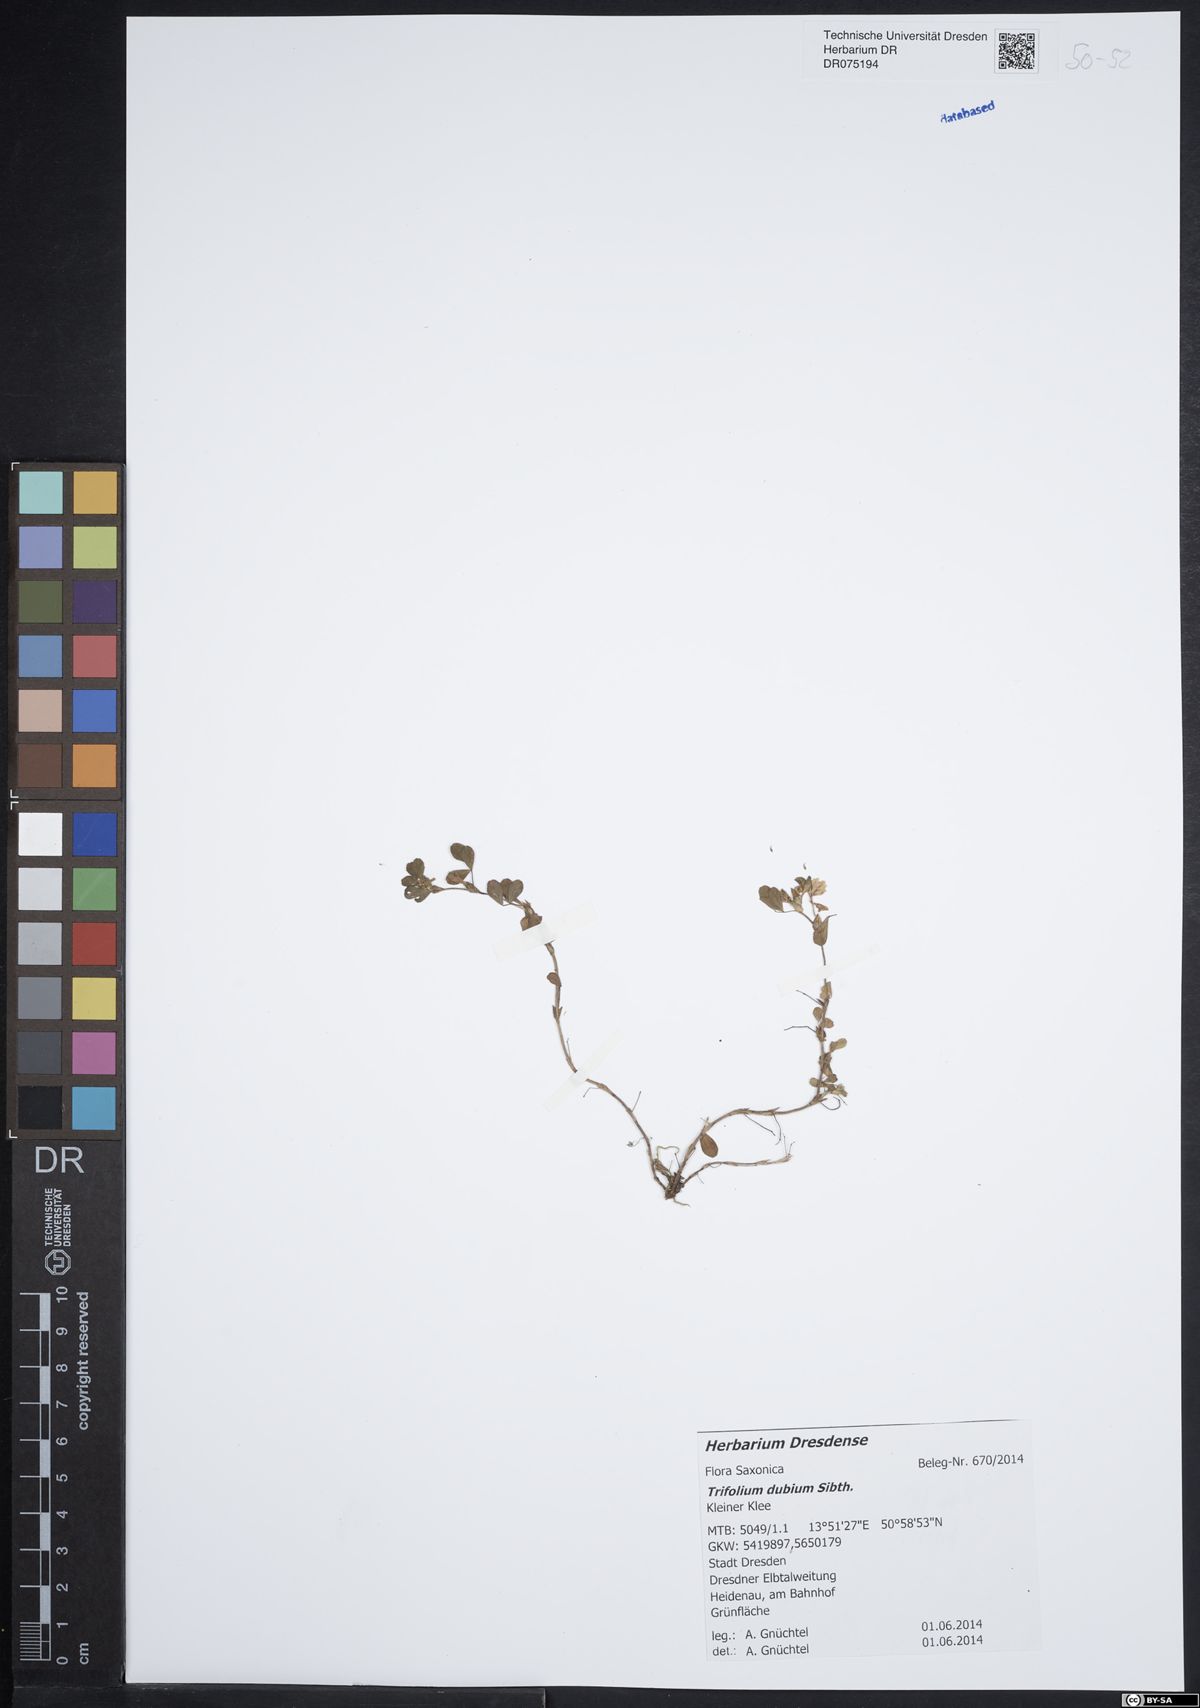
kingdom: Plantae
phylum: Tracheophyta
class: Magnoliopsida
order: Fabales
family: Fabaceae
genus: Trifolium
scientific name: Trifolium dubium
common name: Suckling clover
